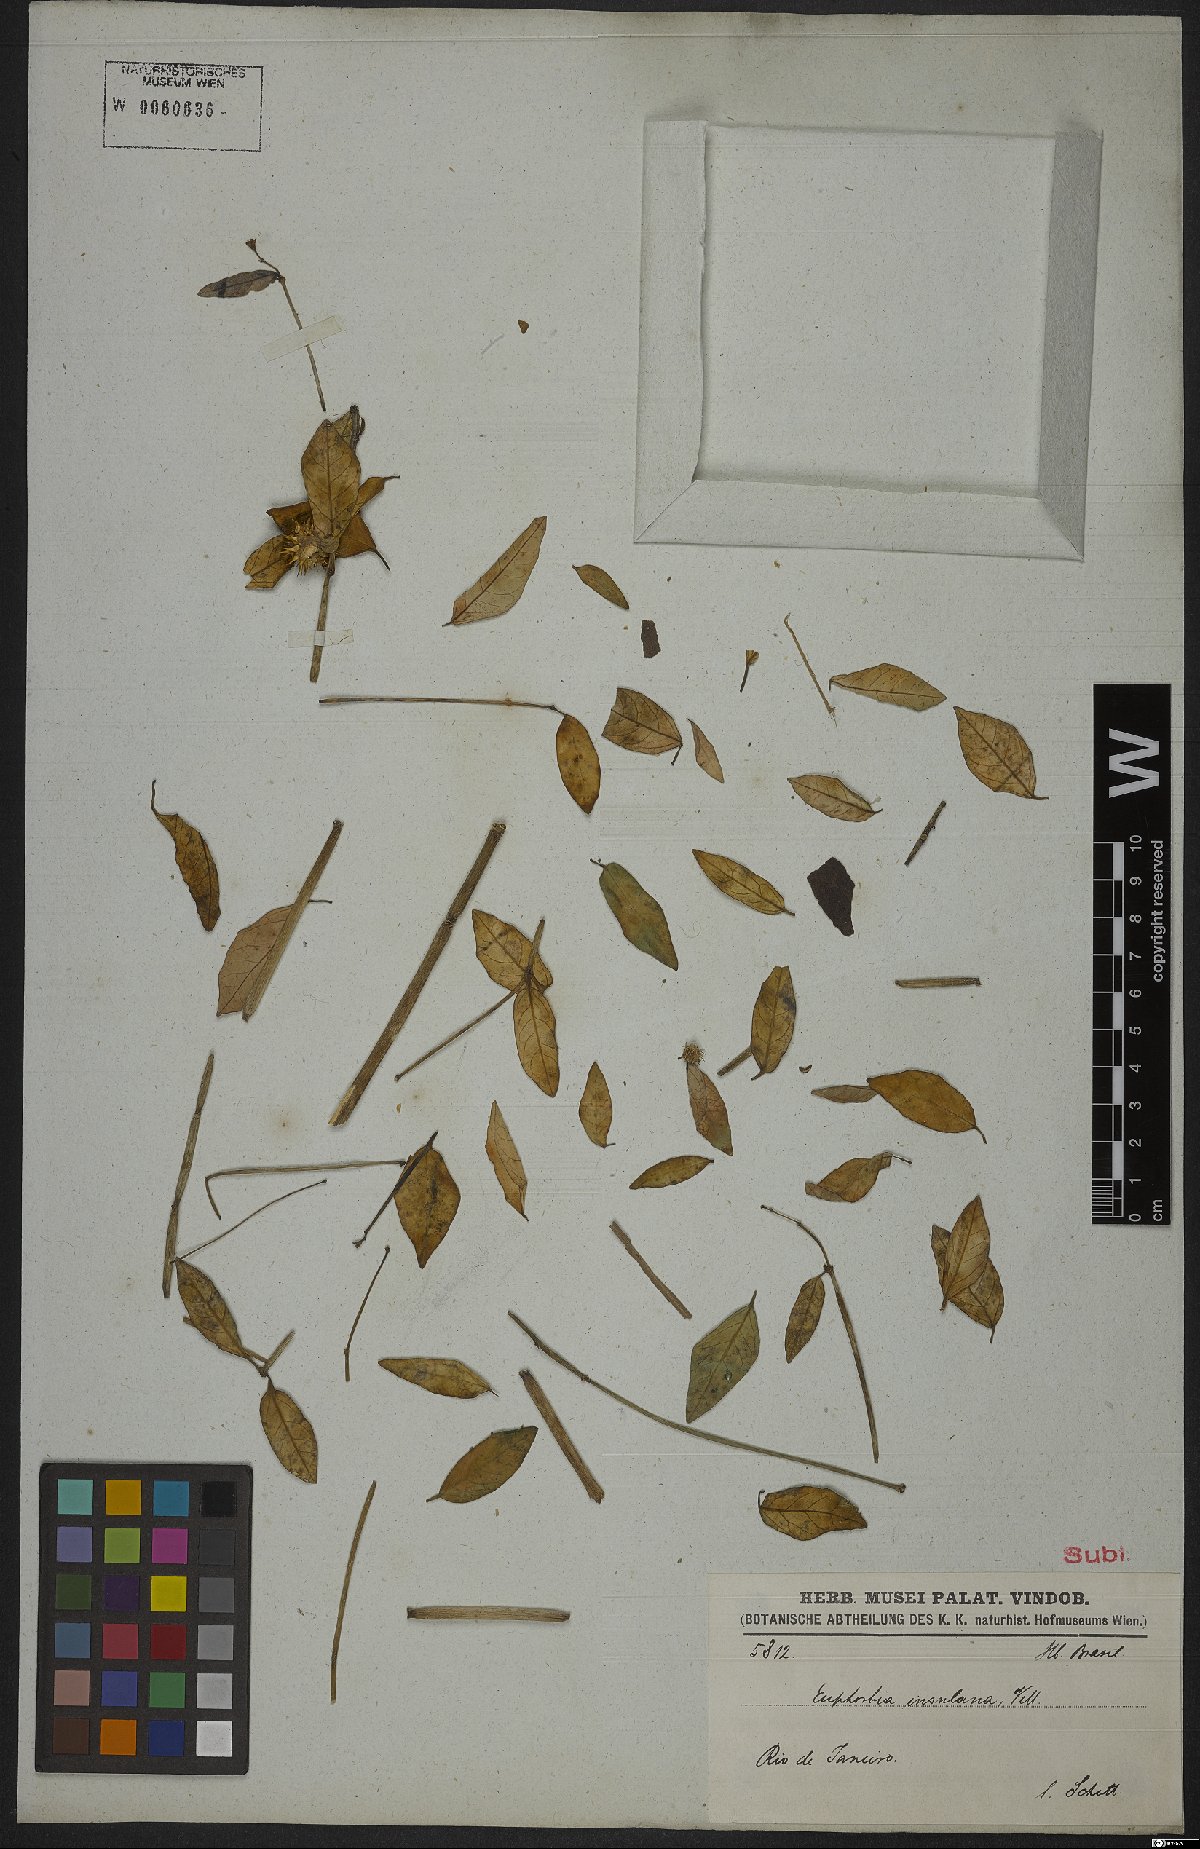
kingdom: Plantae
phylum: Tracheophyta
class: Magnoliopsida
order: Malpighiales
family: Euphorbiaceae
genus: Euphorbia
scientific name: Euphorbia glanduligera
